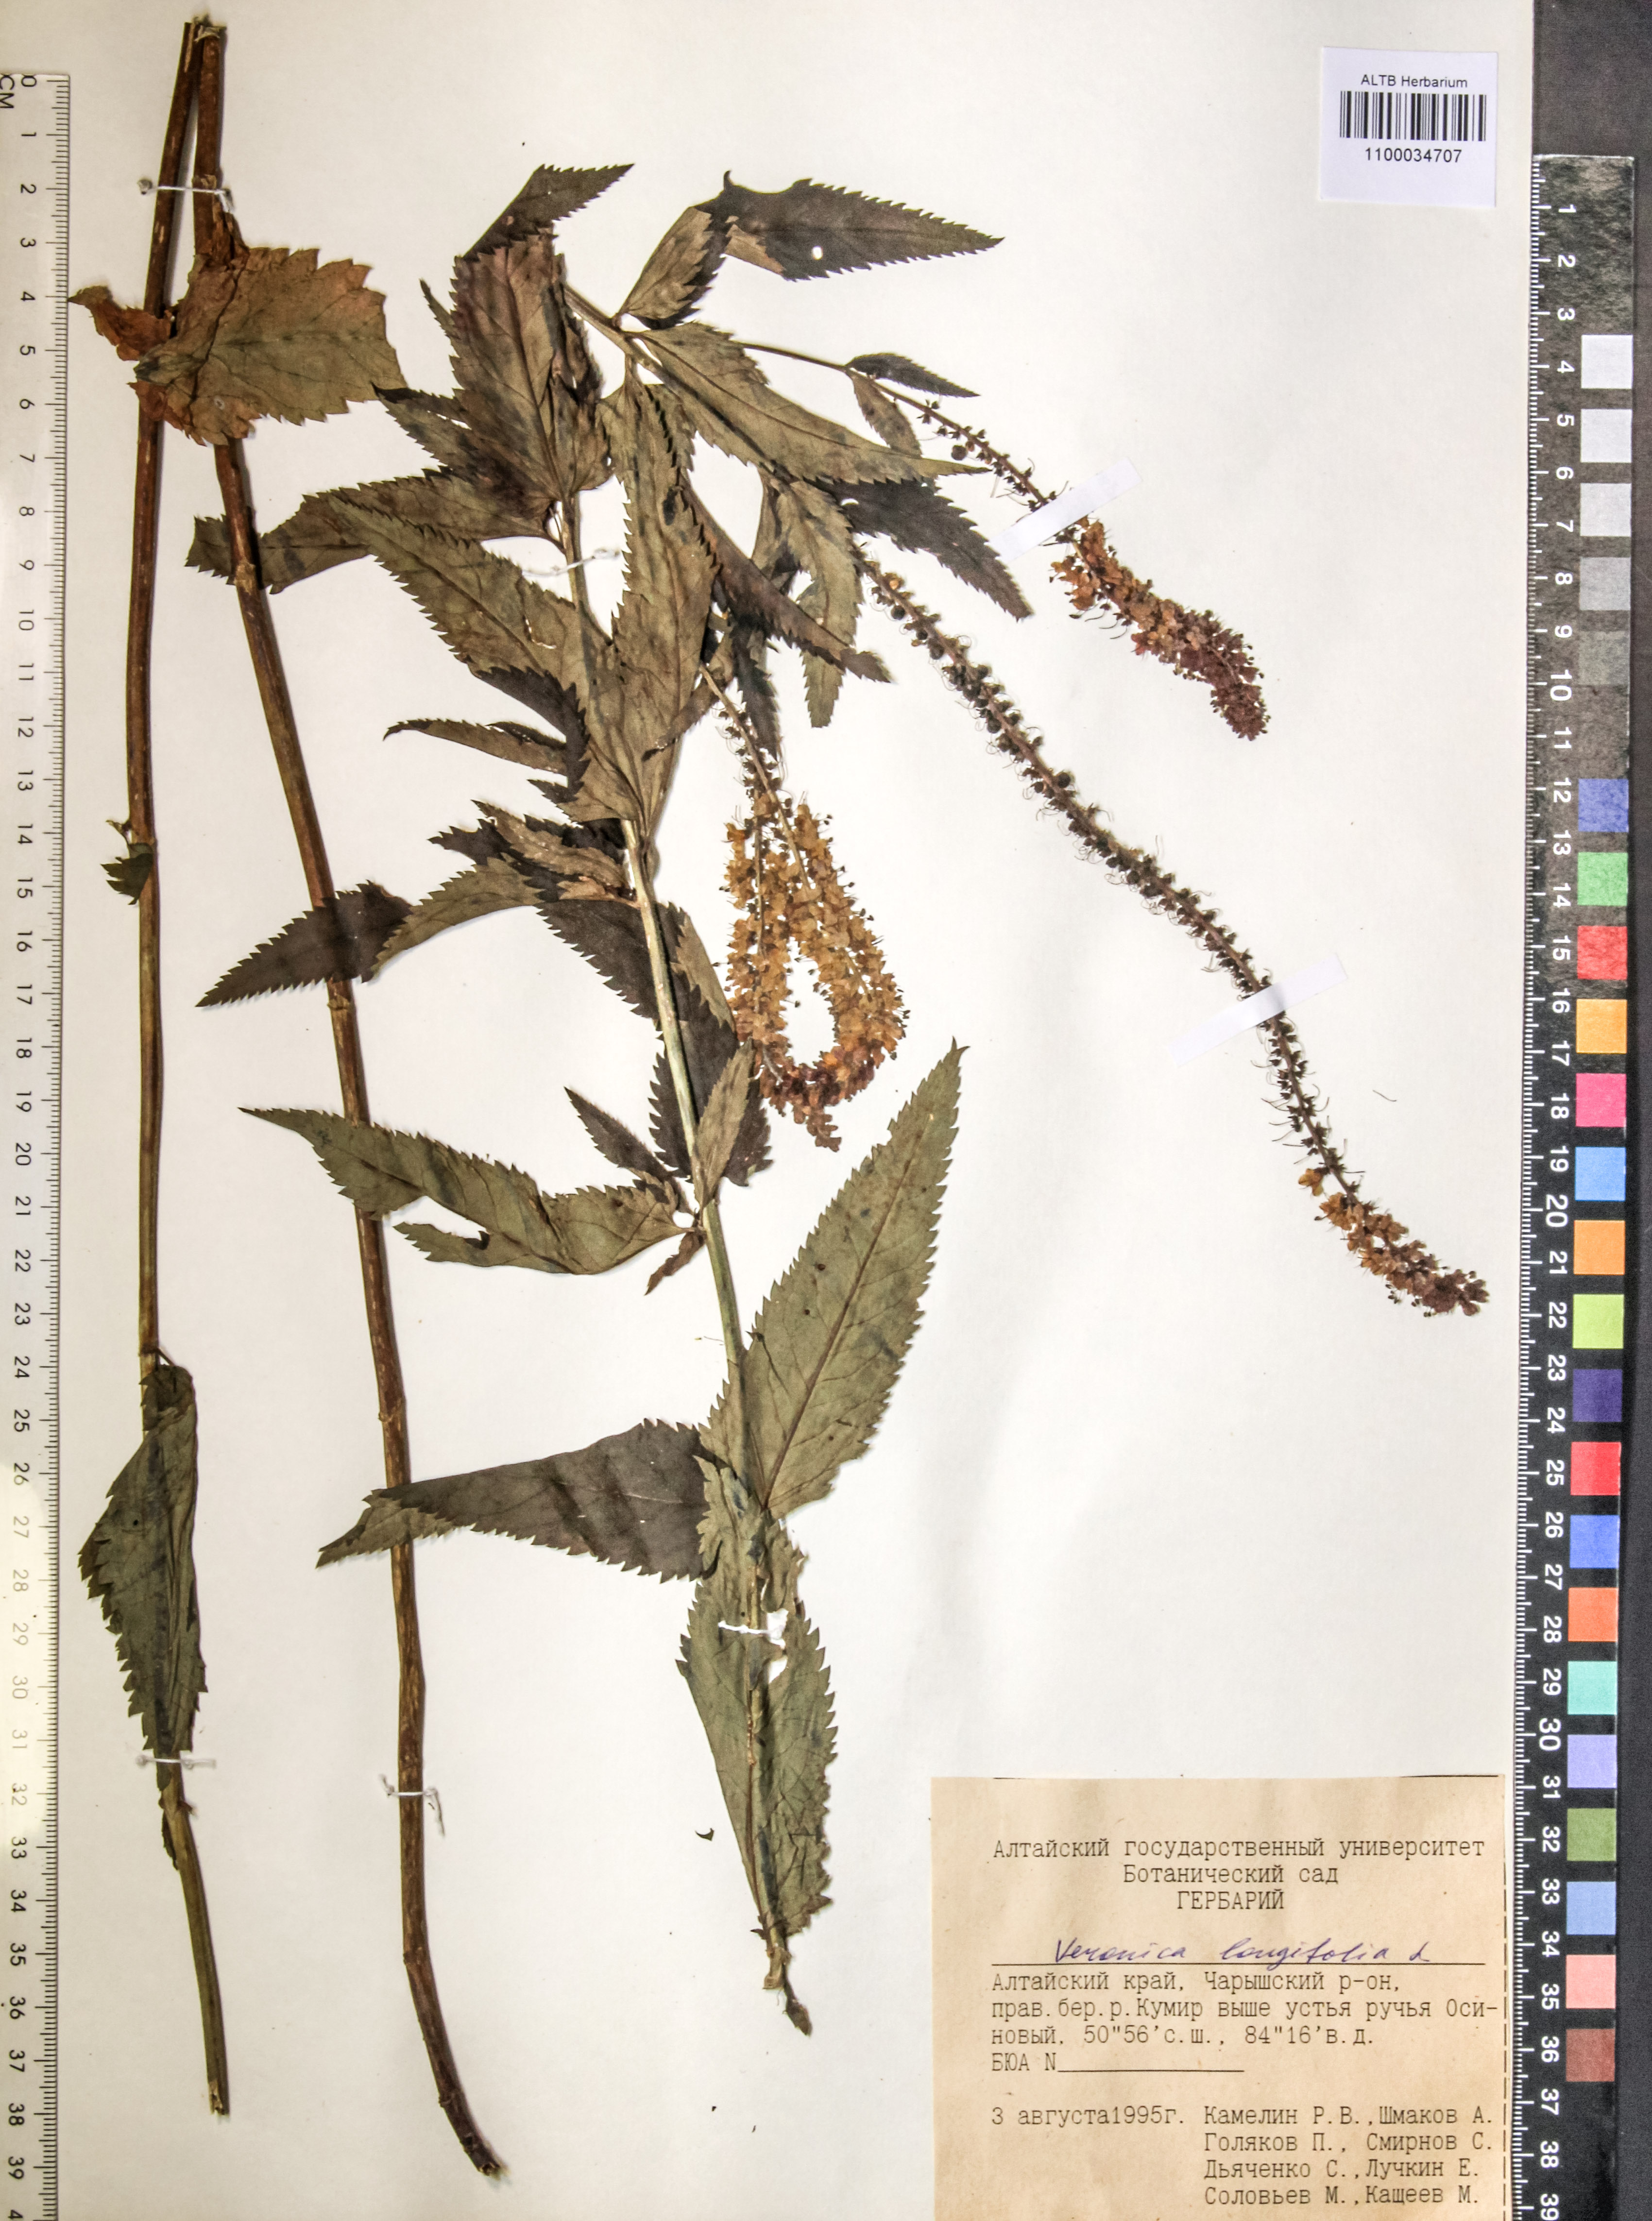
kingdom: Plantae
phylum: Tracheophyta
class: Magnoliopsida
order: Lamiales
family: Plantaginaceae
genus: Veronica
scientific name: Veronica longifolia
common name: Garden speedwell
